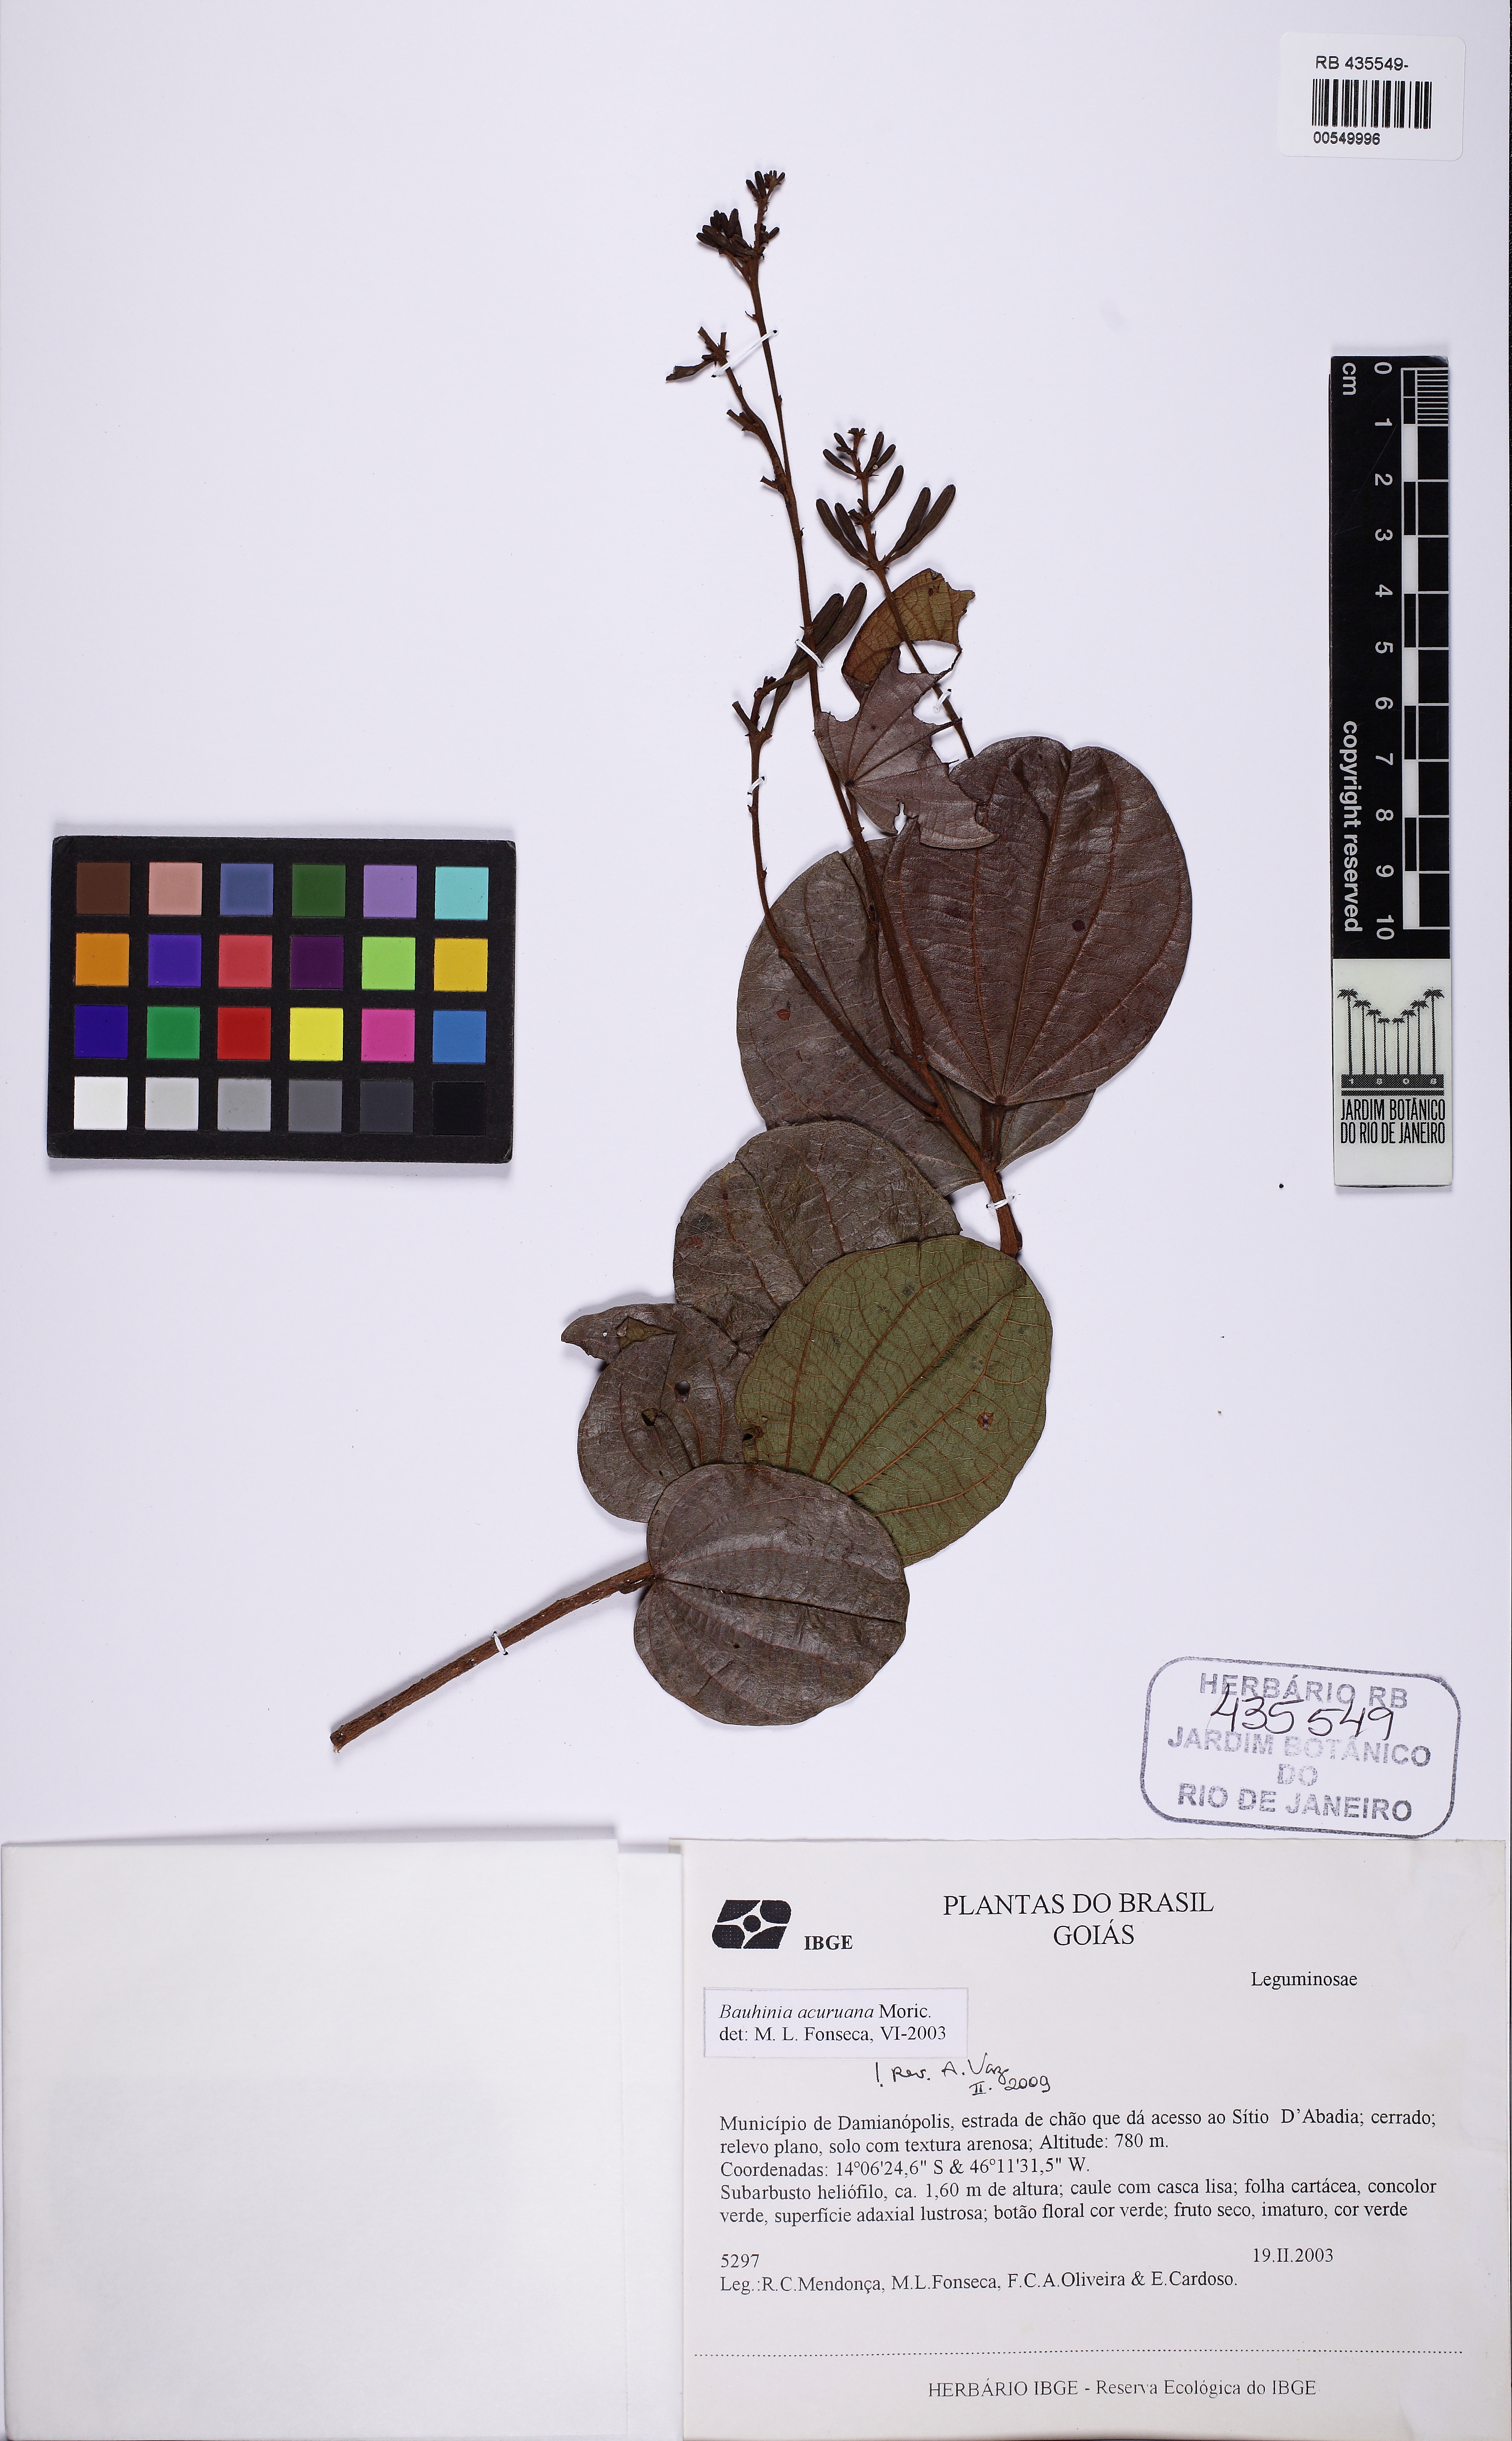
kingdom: Plantae
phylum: Tracheophyta
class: Magnoliopsida
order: Fabales
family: Fabaceae
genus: Bauhinia
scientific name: Bauhinia acuruana
